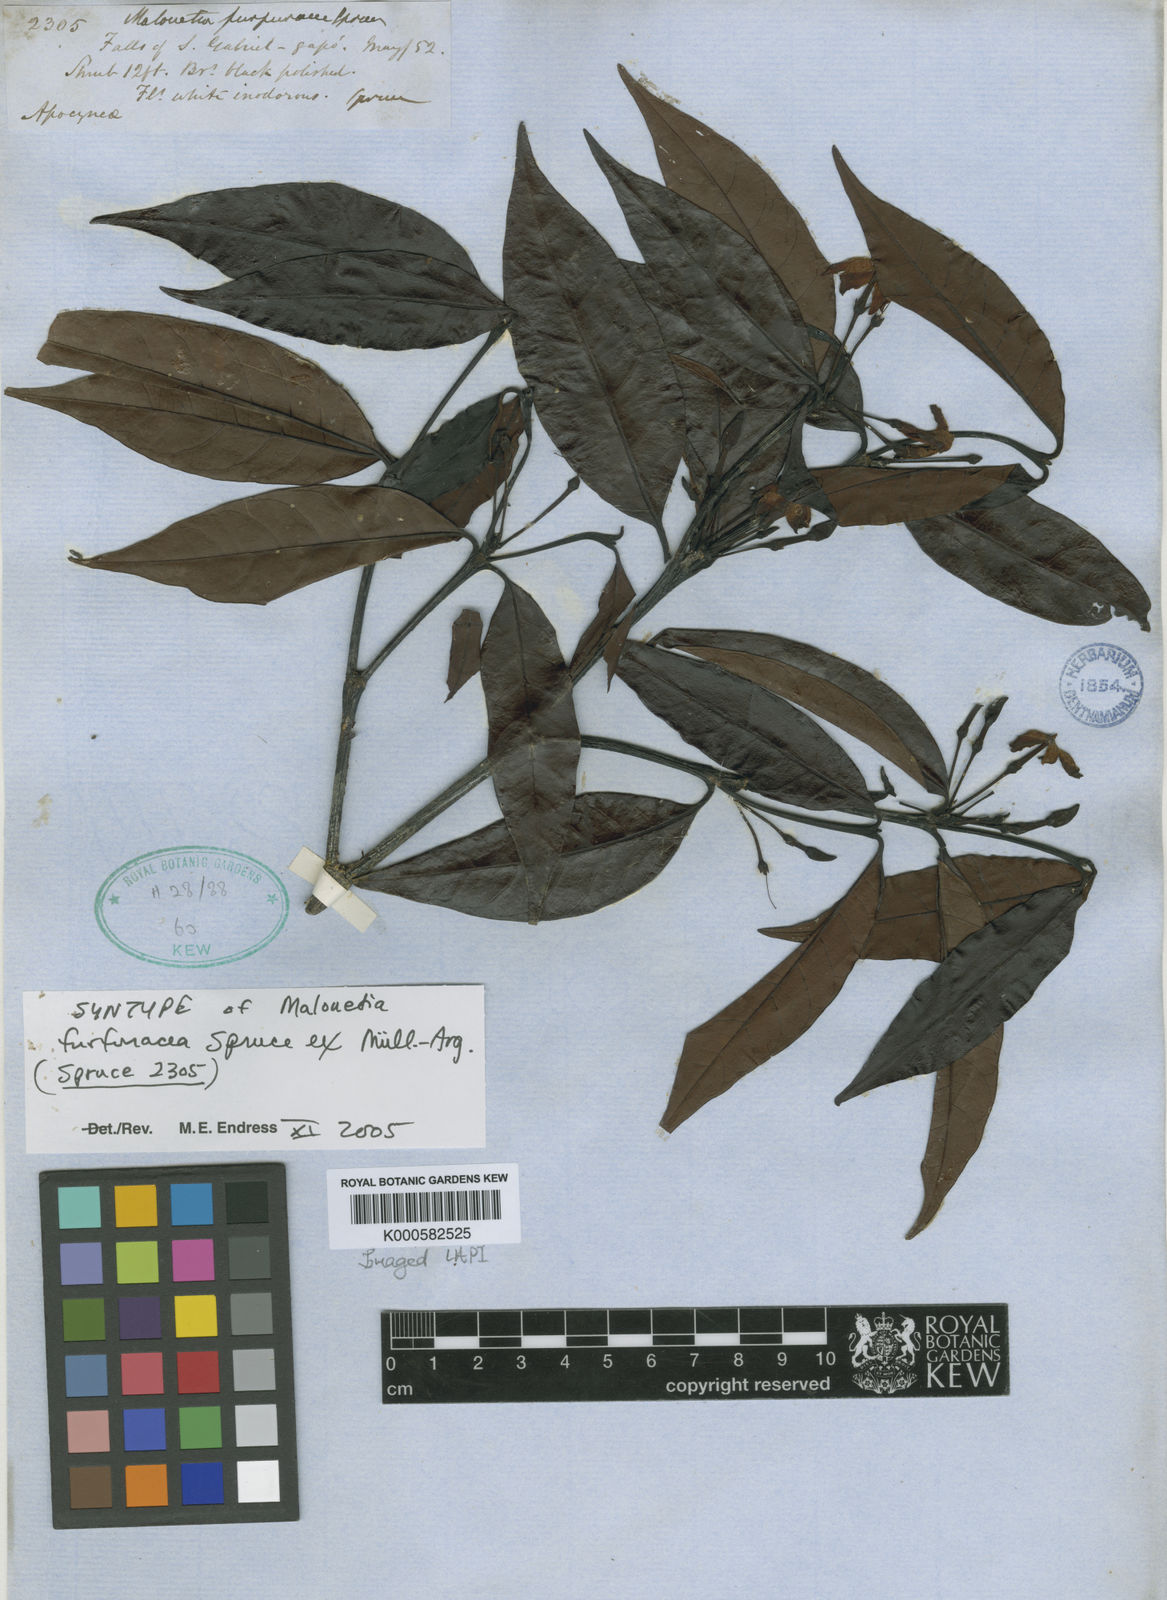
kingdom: Plantae
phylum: Tracheophyta
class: Magnoliopsida
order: Gentianales
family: Apocynaceae
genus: Malouetia
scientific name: Malouetia
